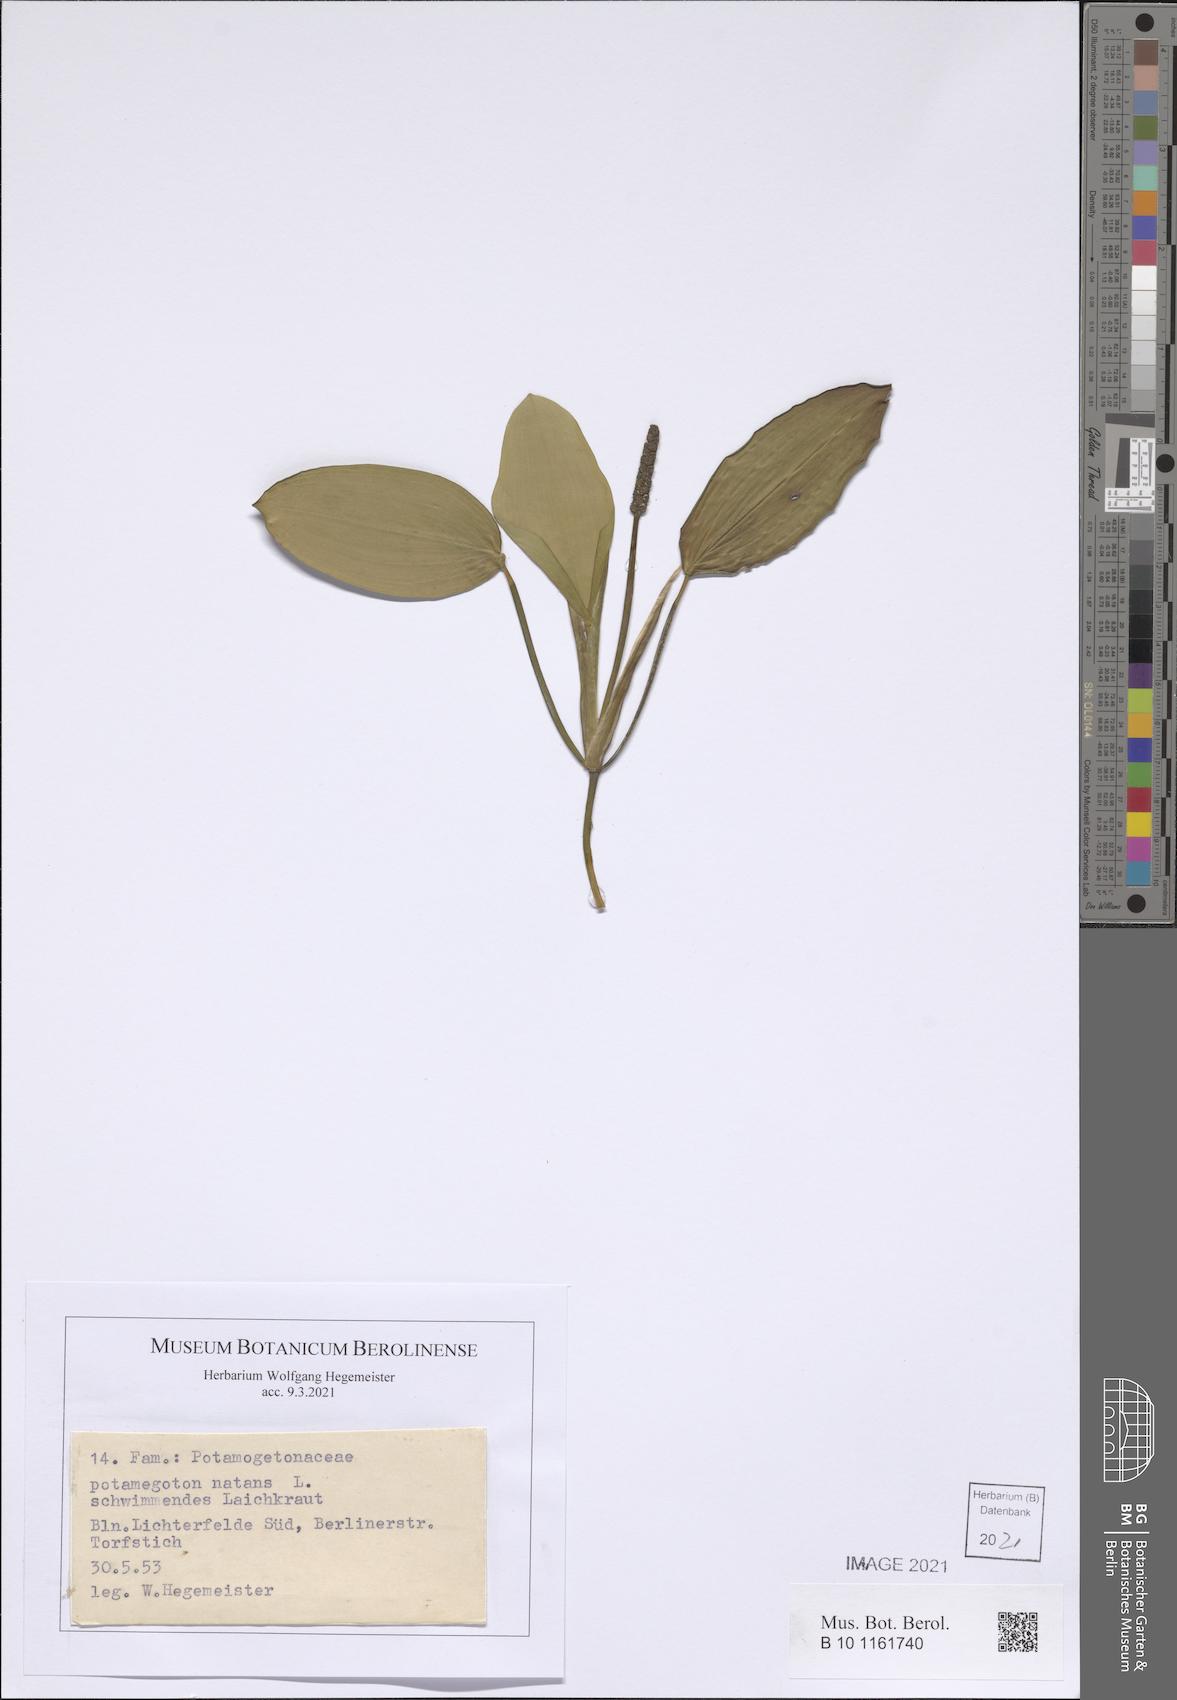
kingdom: Plantae
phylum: Tracheophyta
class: Liliopsida
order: Alismatales
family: Potamogetonaceae
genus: Potamogeton
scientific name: Potamogeton natans
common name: Broad-leaved pondweed
